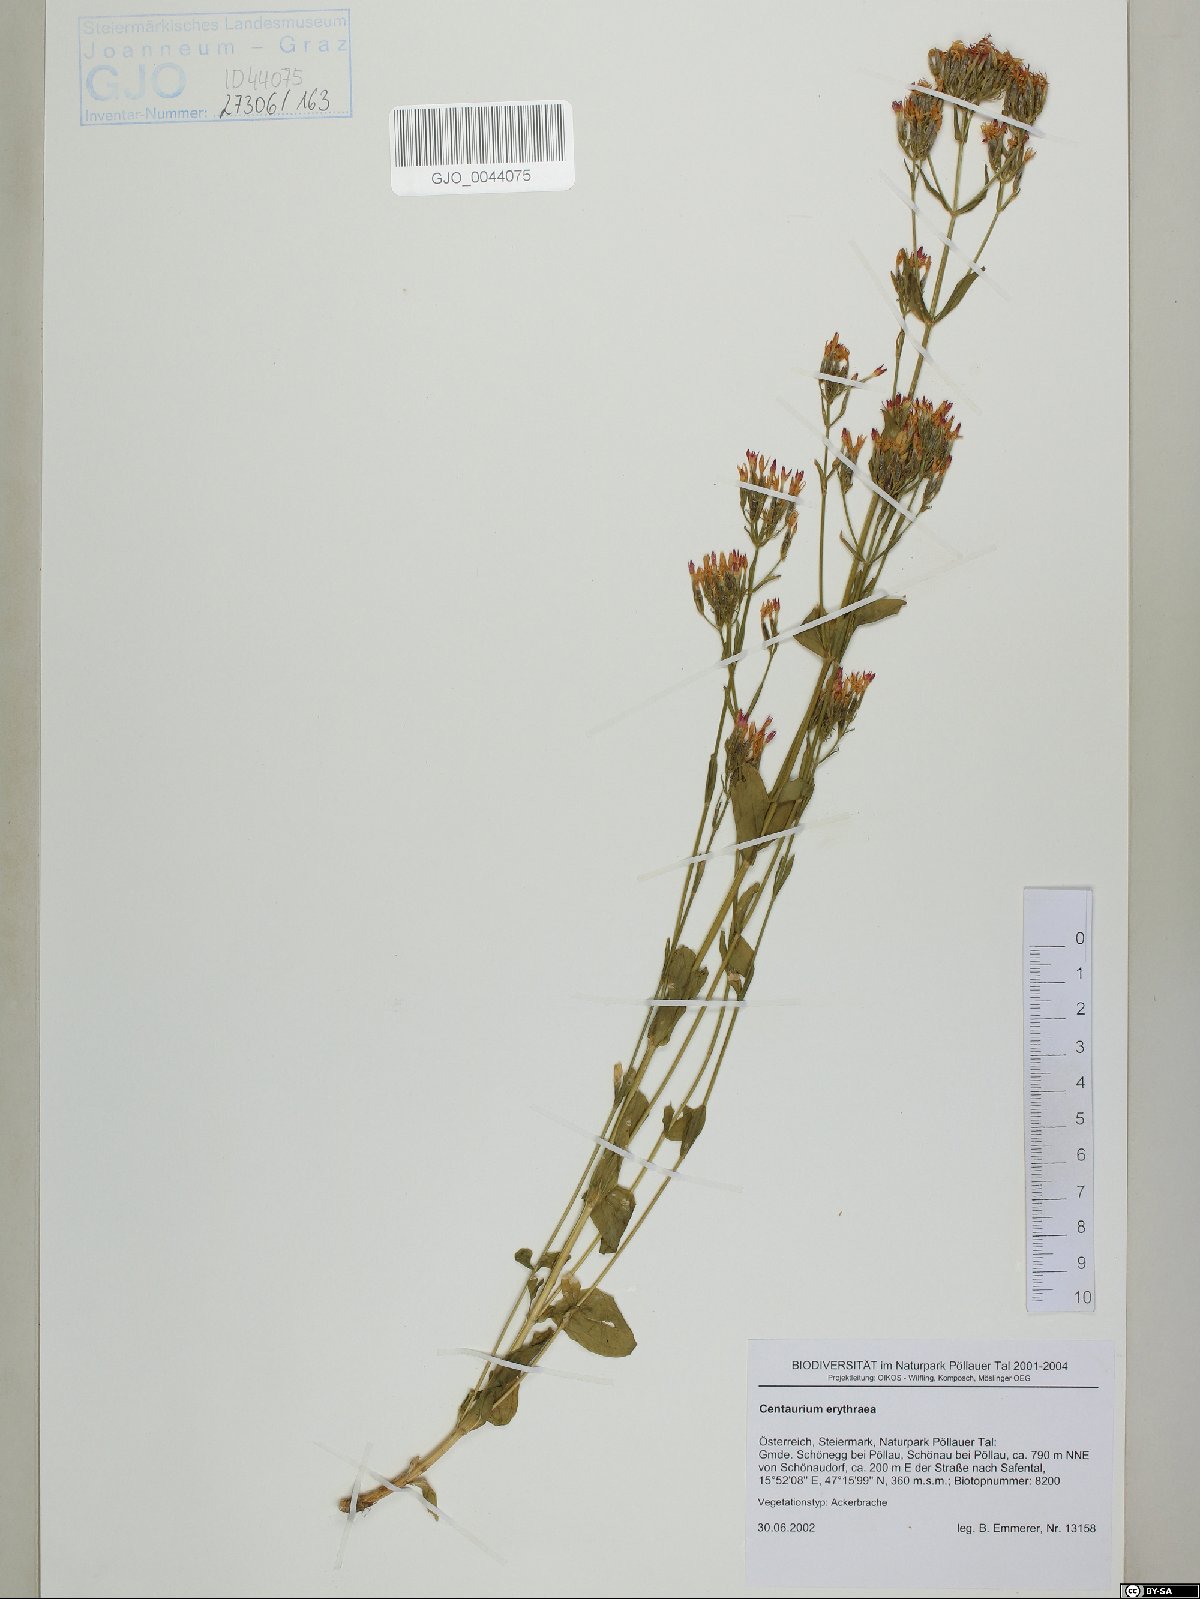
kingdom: Plantae
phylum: Tracheophyta
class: Magnoliopsida
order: Gentianales
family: Gentianaceae
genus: Centaurium
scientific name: Centaurium erythraea
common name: Common centaury
